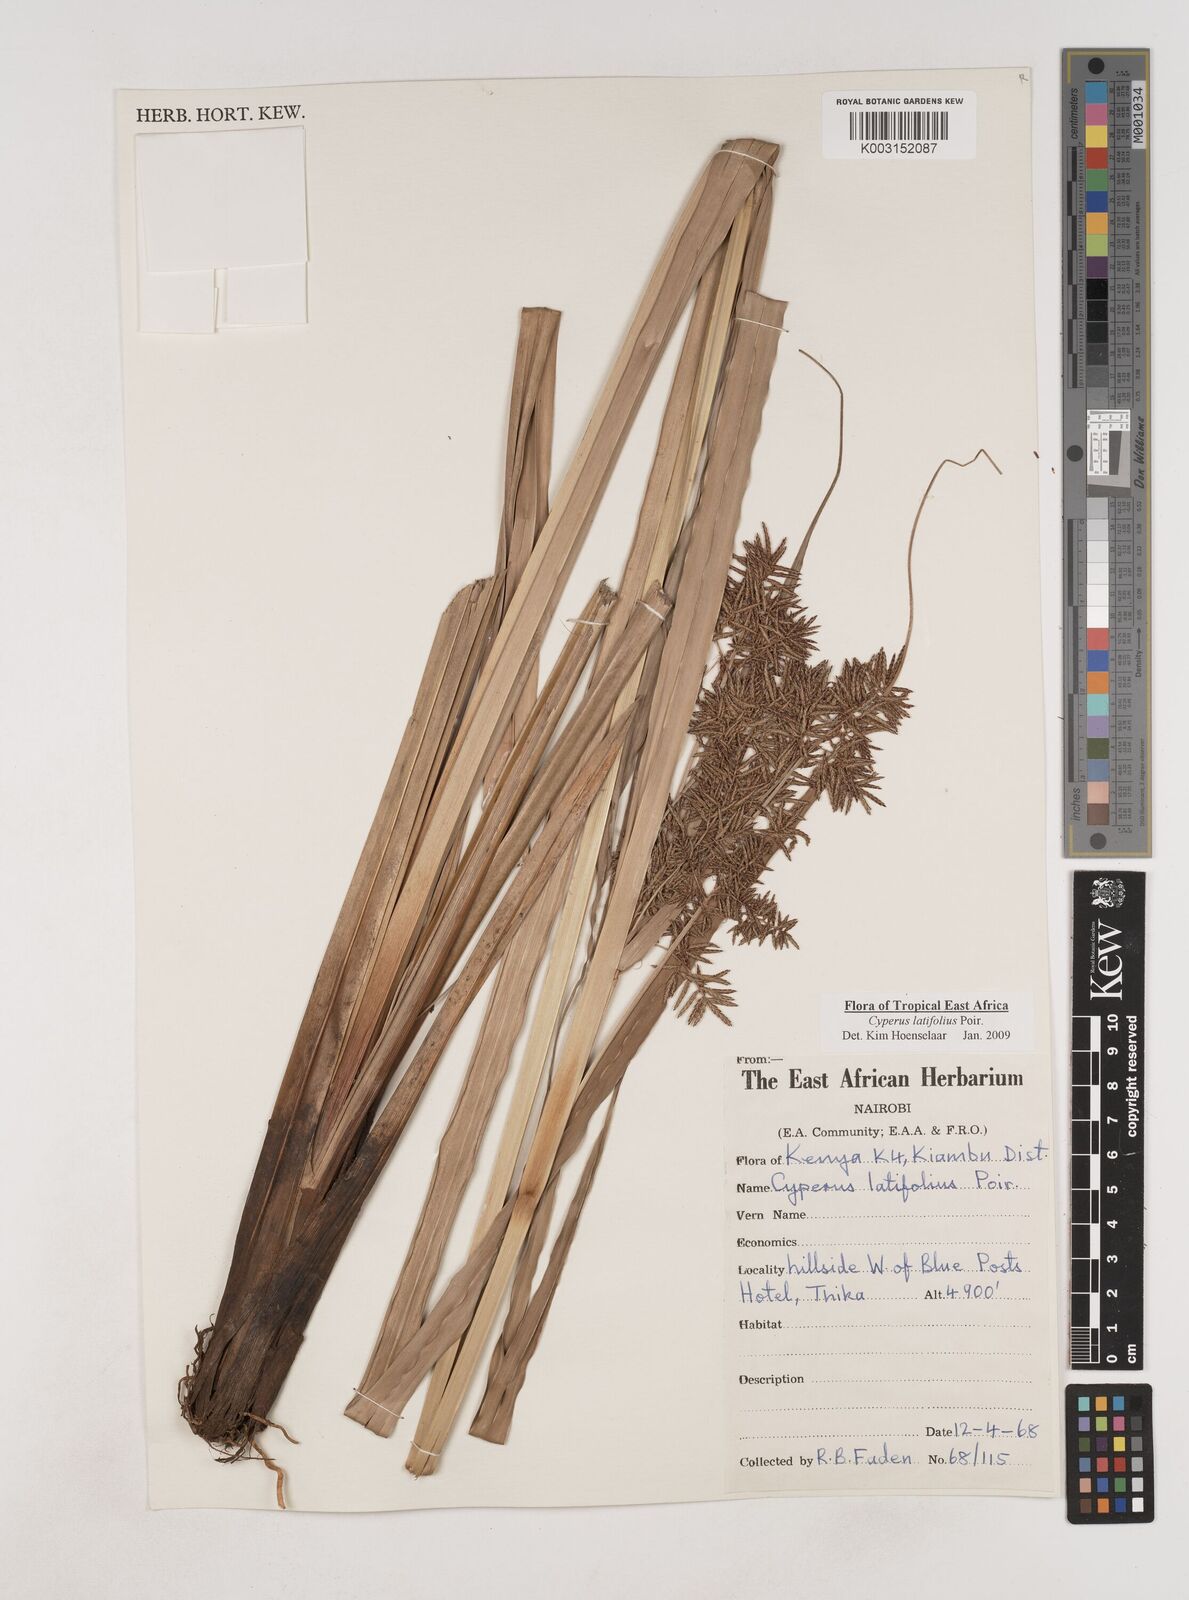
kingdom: Plantae
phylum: Tracheophyta
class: Liliopsida
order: Poales
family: Cyperaceae
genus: Cyperus
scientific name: Cyperus latifolius
